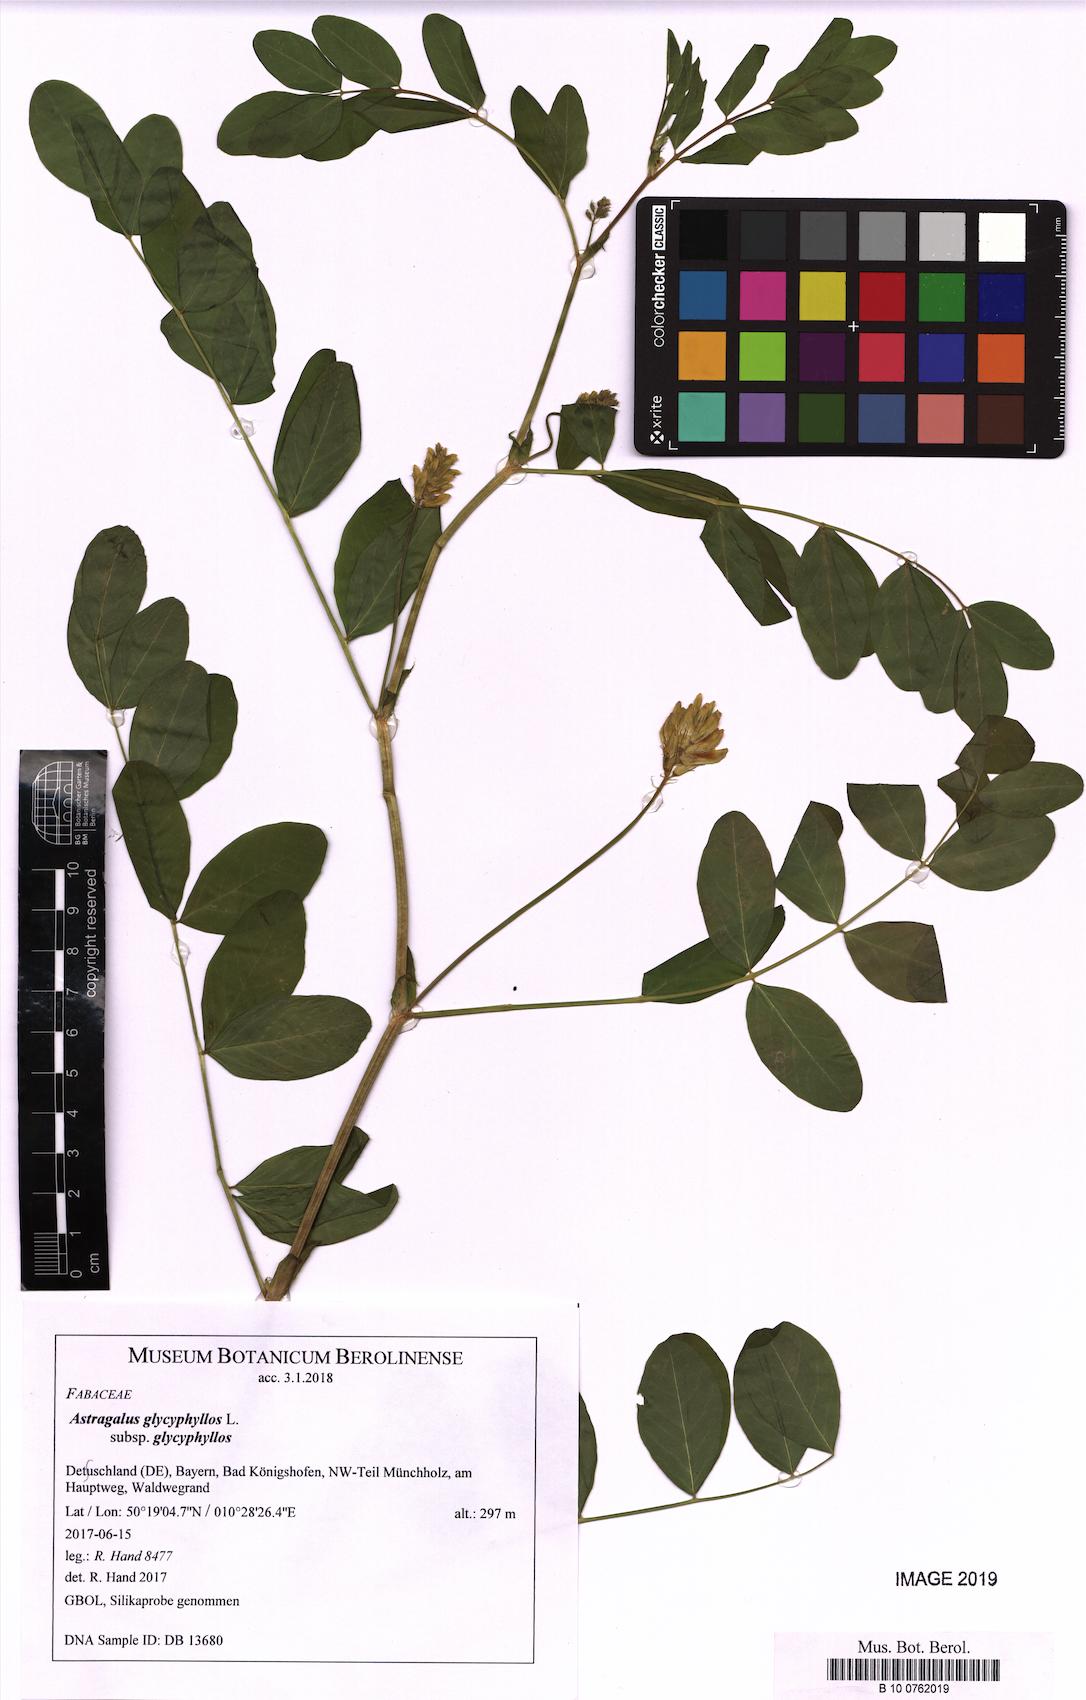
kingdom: Plantae
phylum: Tracheophyta
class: Magnoliopsida
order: Fabales
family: Fabaceae
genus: Astragalus
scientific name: Astragalus glycyphyllos
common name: Wild liquorice
